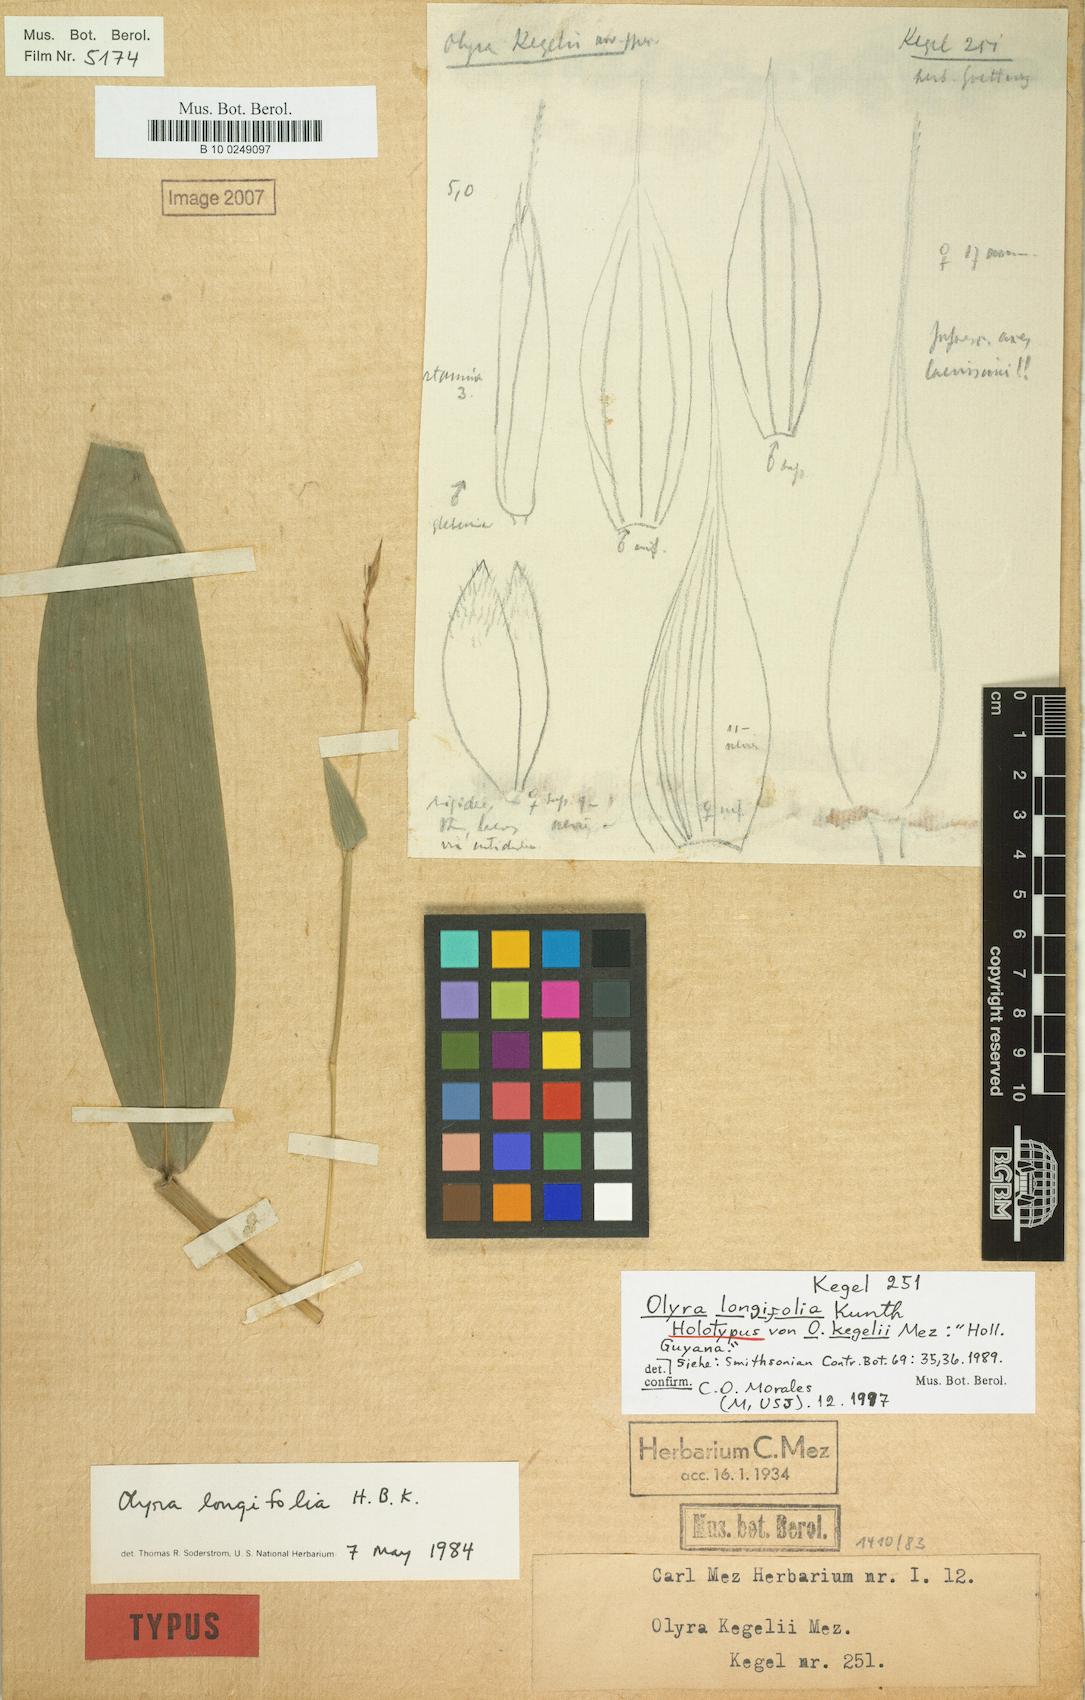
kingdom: Plantae
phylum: Tracheophyta
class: Liliopsida
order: Poales
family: Poaceae
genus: Olyra
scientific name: Olyra longifolia
